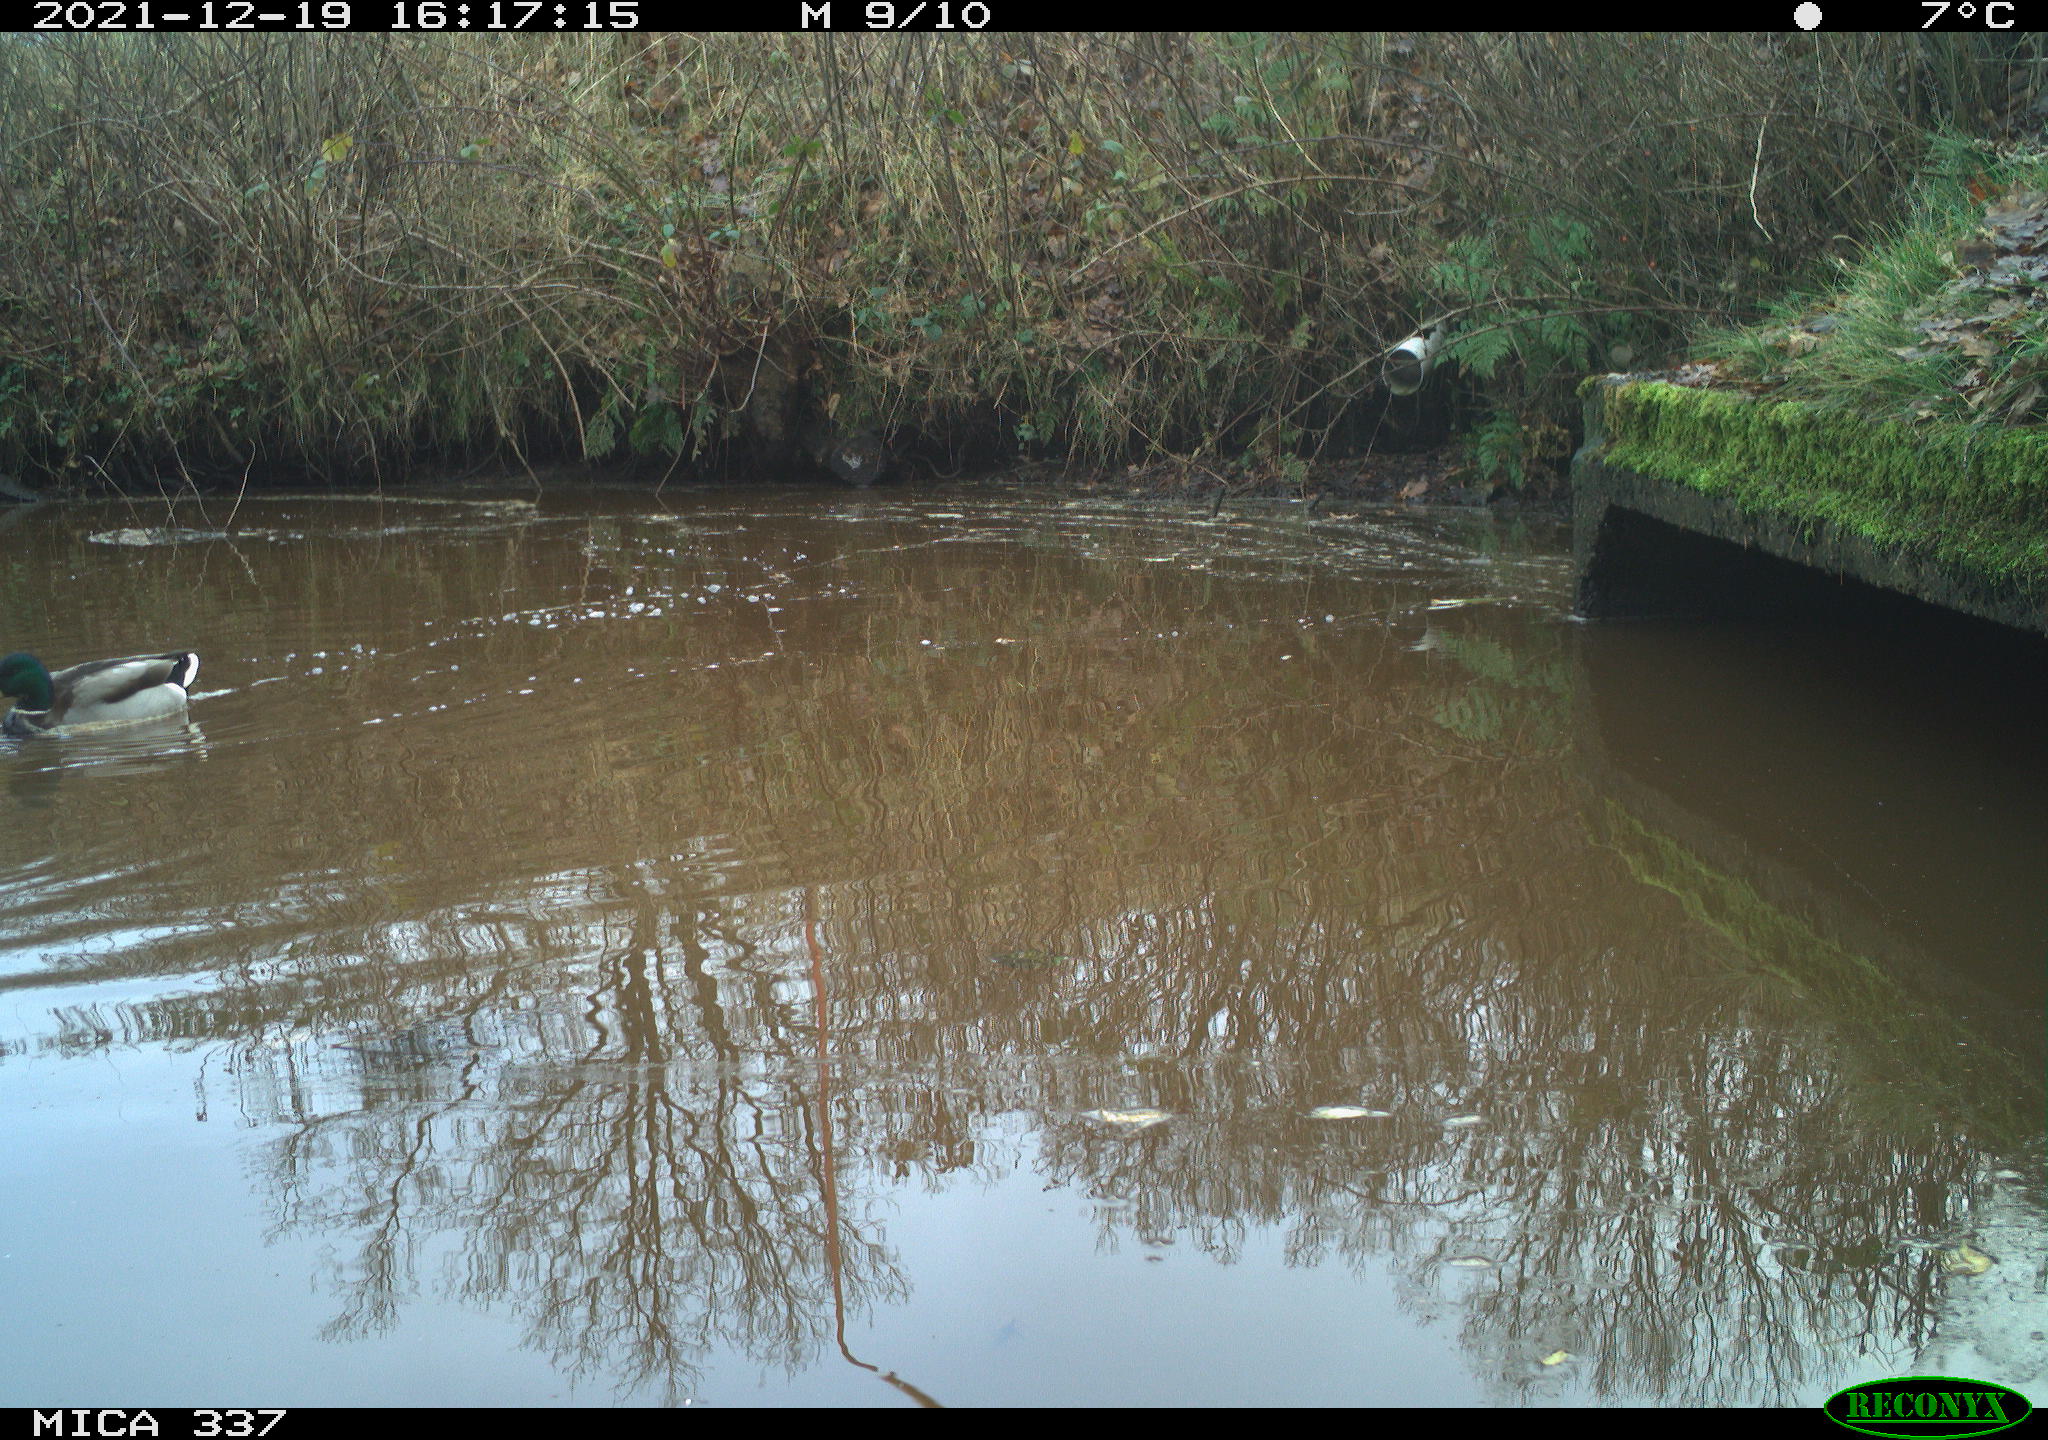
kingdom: Animalia
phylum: Chordata
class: Aves
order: Anseriformes
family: Anatidae
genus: Anas
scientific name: Anas platyrhynchos
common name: Mallard
